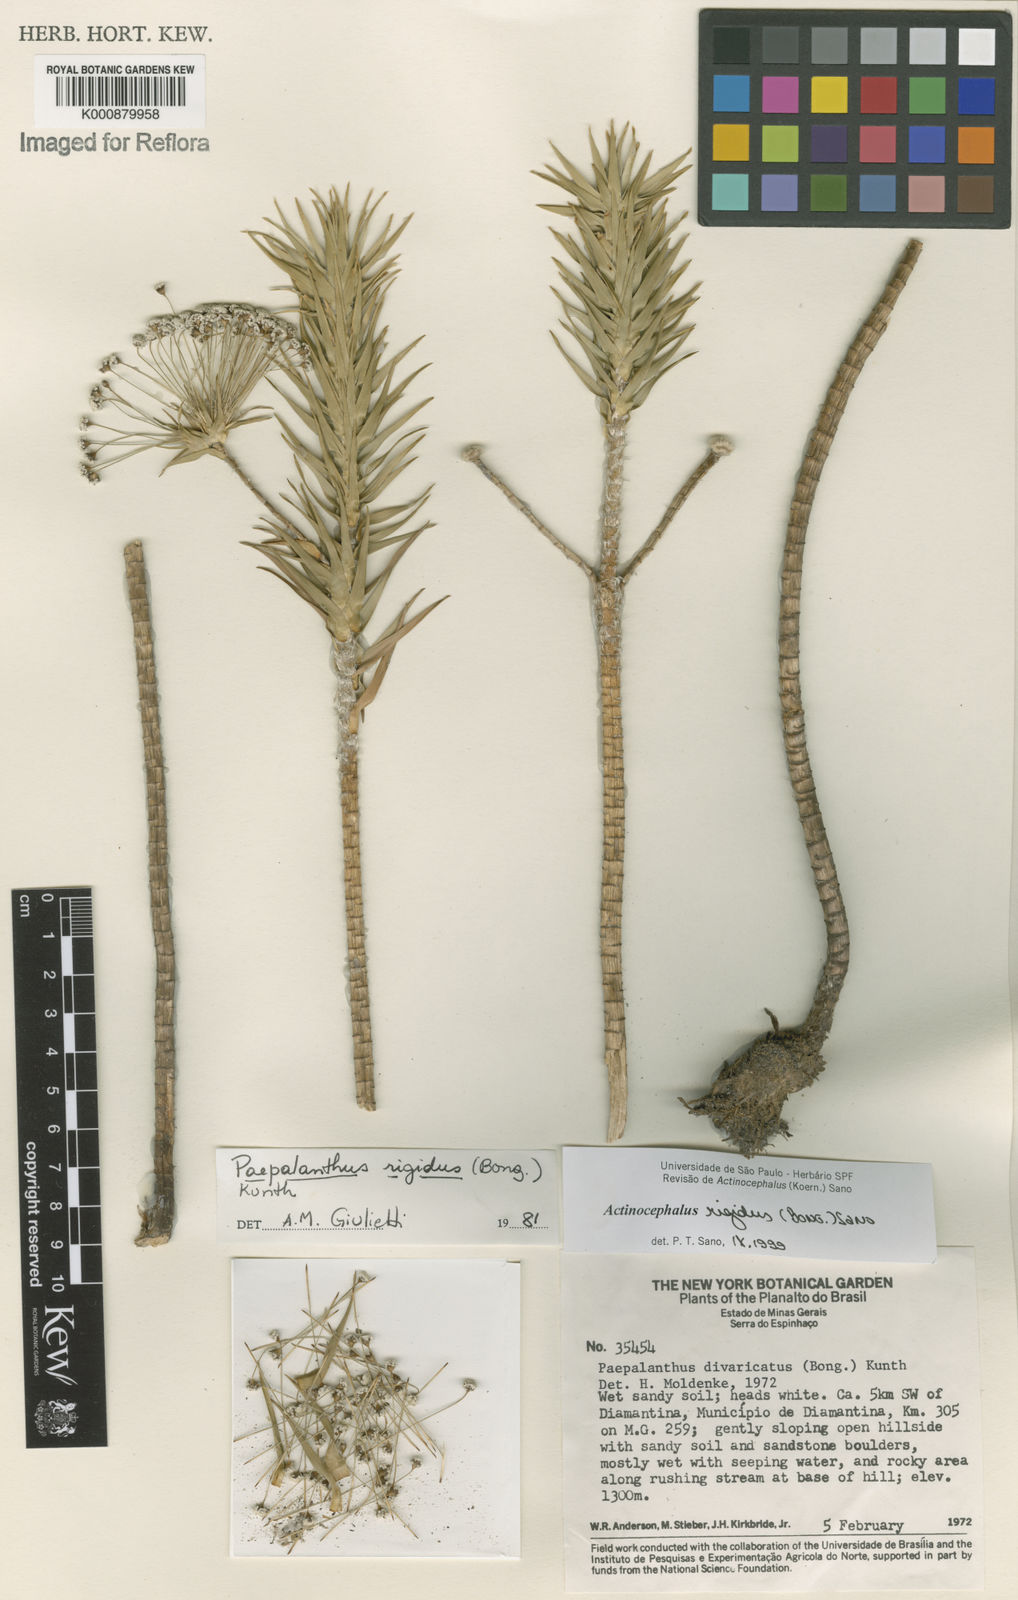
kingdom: Plantae
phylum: Tracheophyta
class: Liliopsida
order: Poales
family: Eriocaulaceae
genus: Paepalanthus
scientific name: Paepalanthus rigidus
